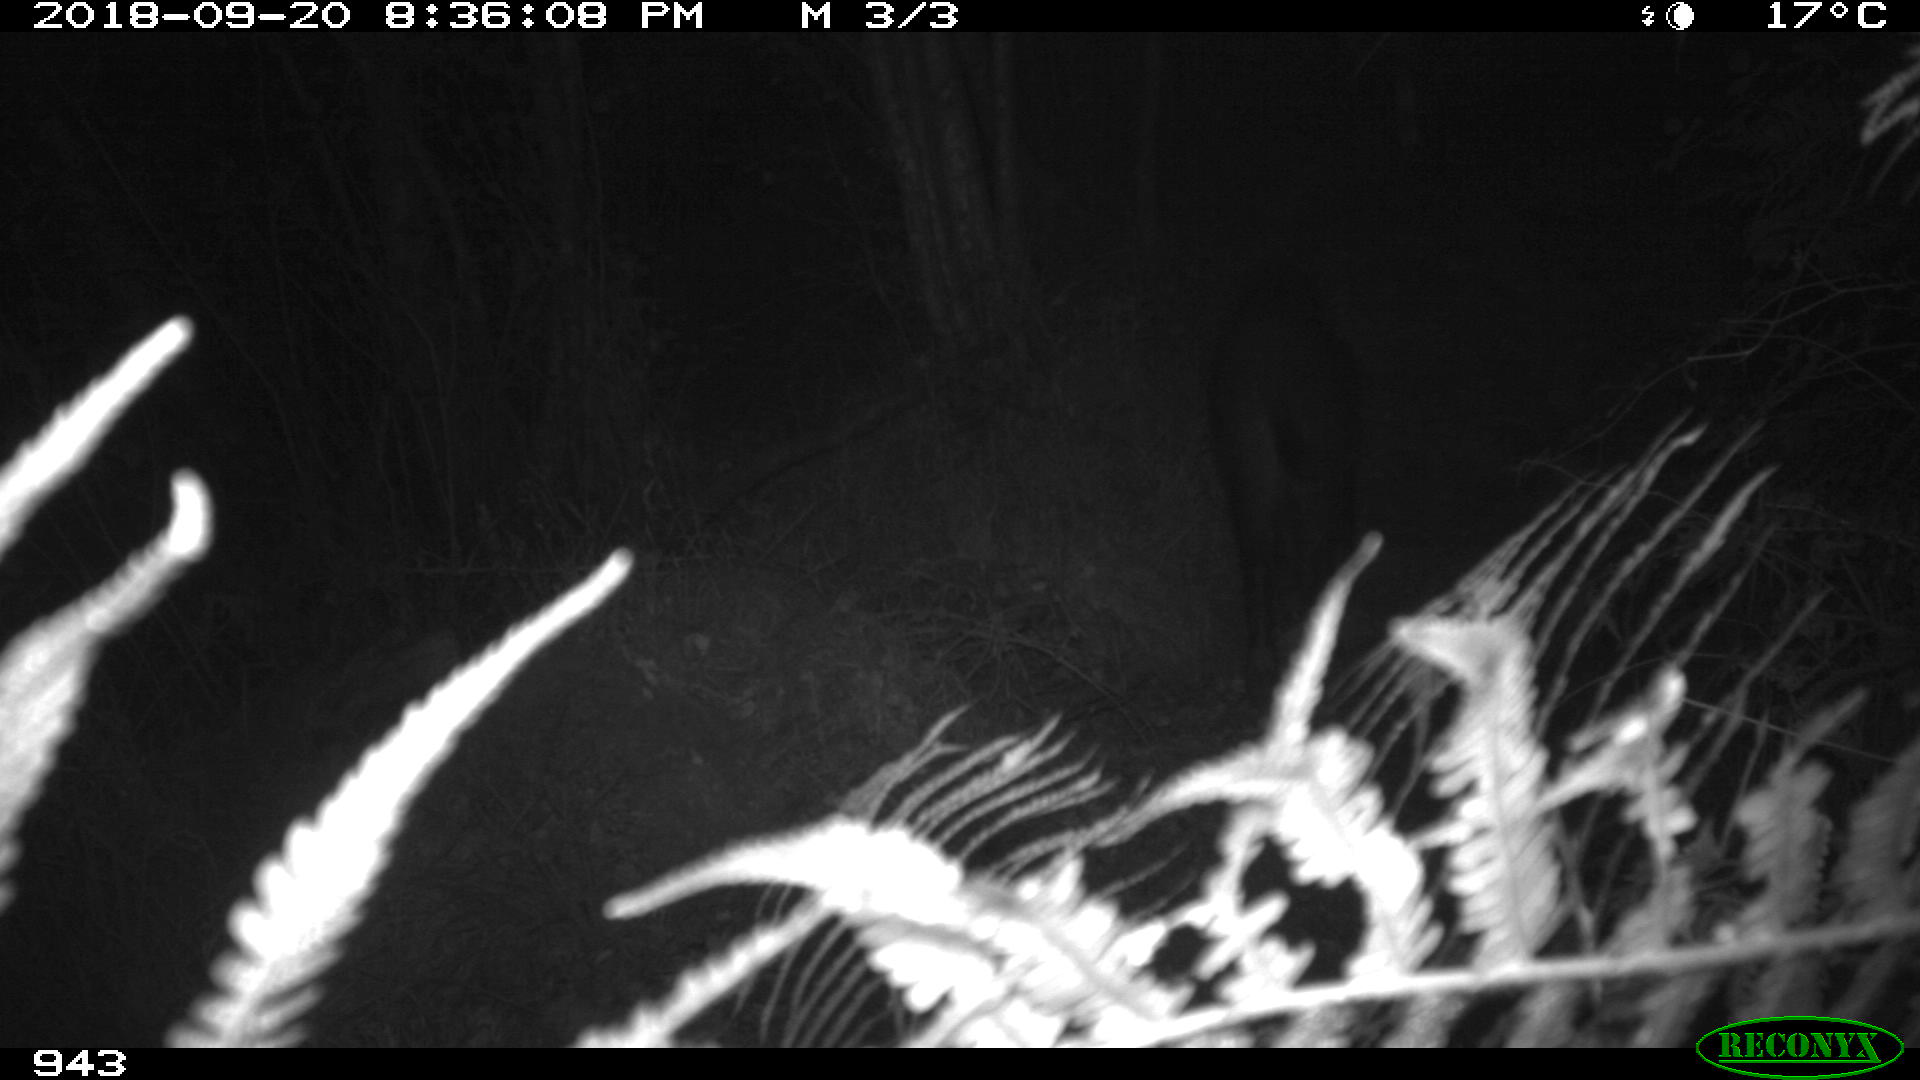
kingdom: Animalia
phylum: Chordata
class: Mammalia
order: Artiodactyla
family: Suidae
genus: Sus
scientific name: Sus scrofa
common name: Wild boar
